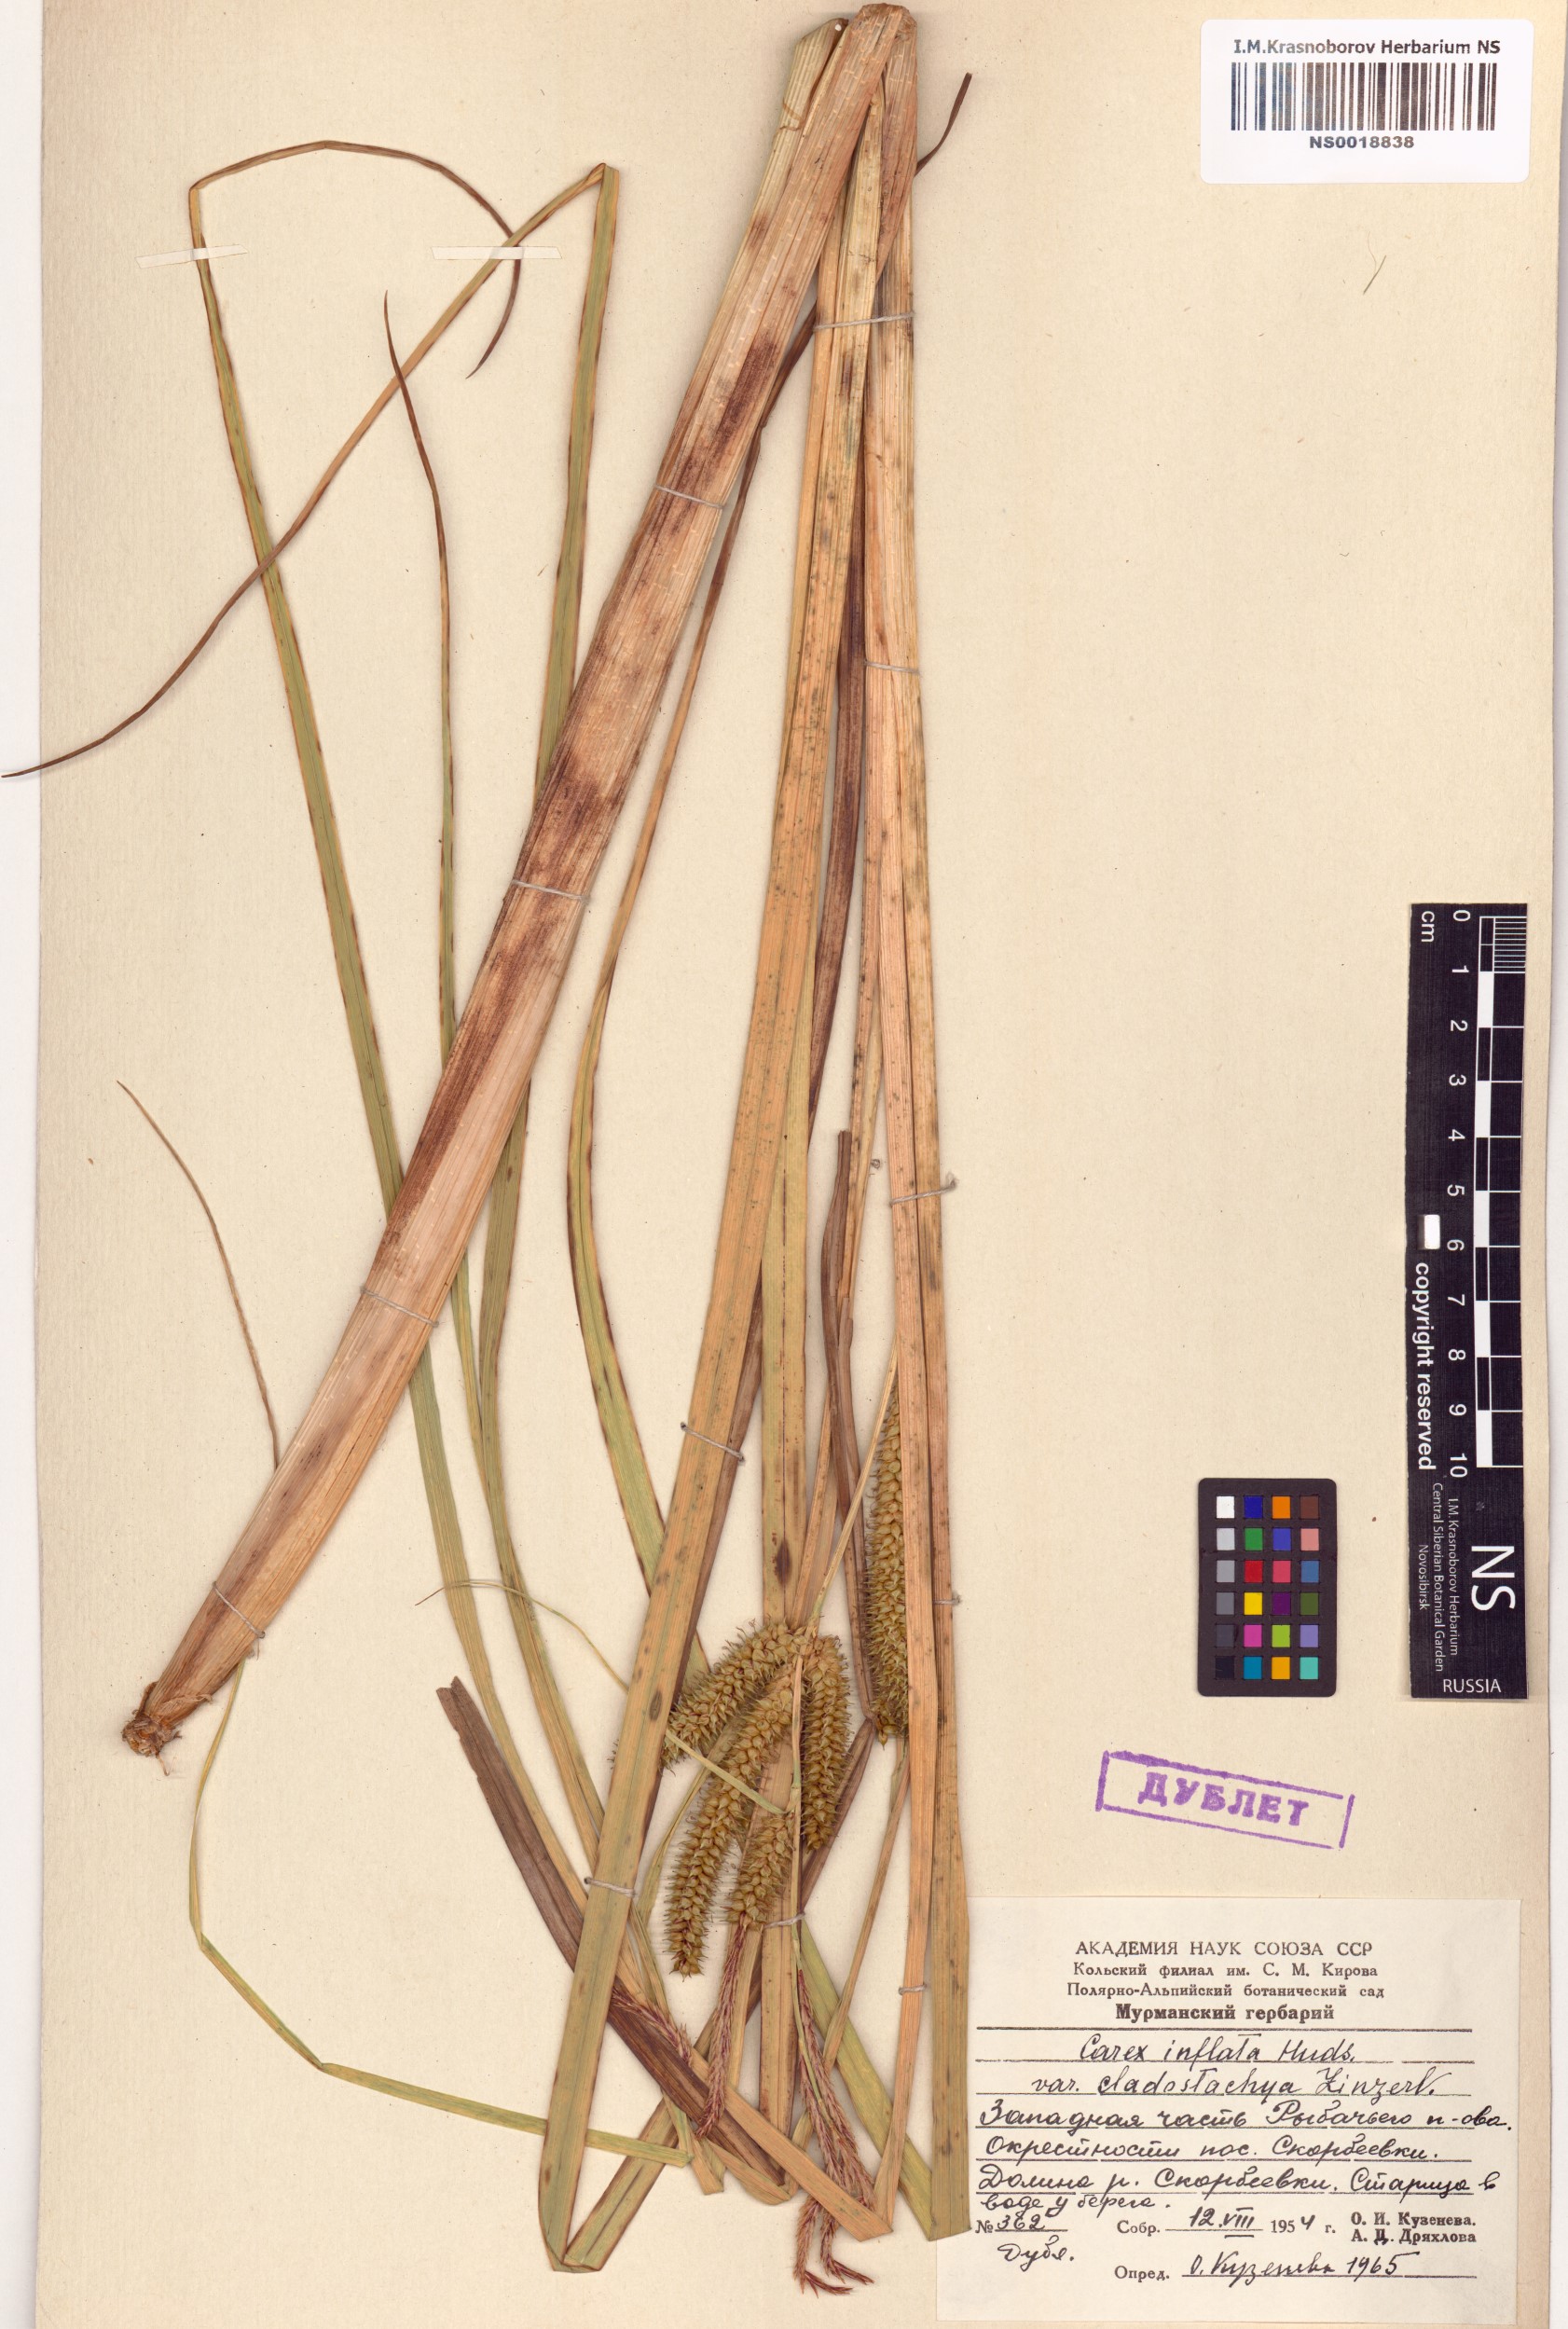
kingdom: Plantae
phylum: Tracheophyta
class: Liliopsida
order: Poales
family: Cyperaceae
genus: Carex
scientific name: Carex rostrata
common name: Bottle sedge
